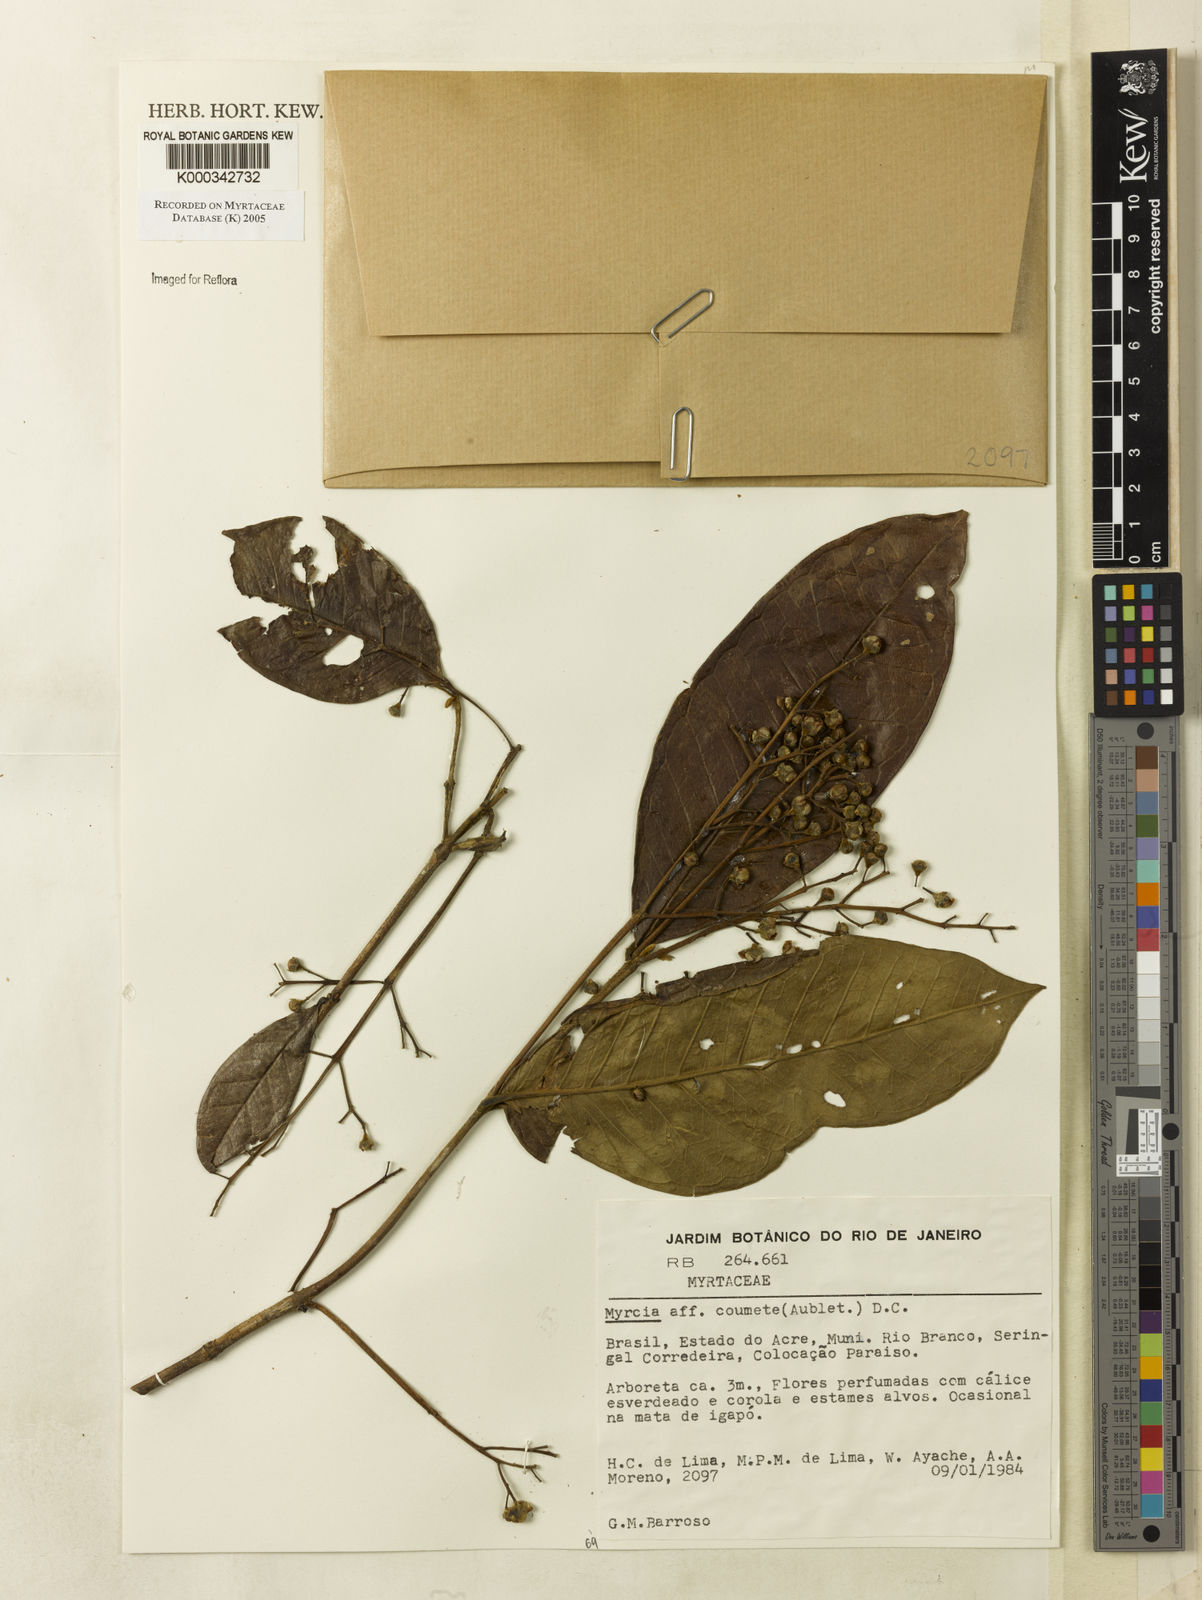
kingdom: Plantae
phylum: Tracheophyta
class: Magnoliopsida
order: Myrtales
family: Myrtaceae
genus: Myrcia
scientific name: Myrcia
